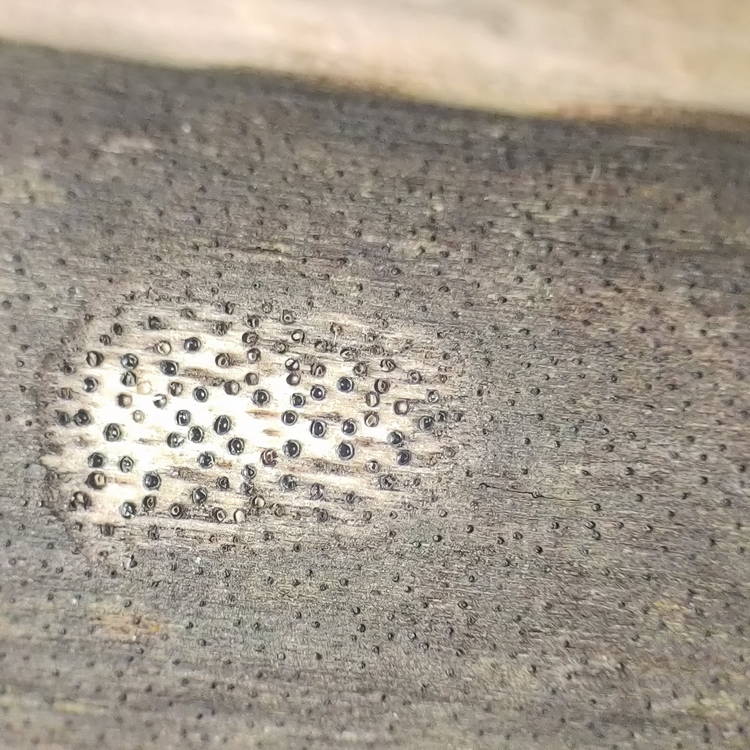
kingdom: Fungi
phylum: Ascomycota
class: Sordariomycetes
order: Xylariales
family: Diatrypaceae
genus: Eutypa
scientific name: Eutypa sparsa
